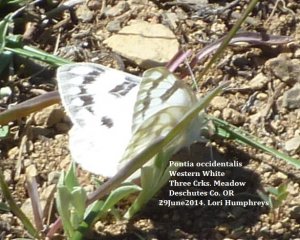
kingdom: Animalia
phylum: Arthropoda
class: Insecta
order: Lepidoptera
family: Pieridae
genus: Pontia
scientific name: Pontia occidentalis
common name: Western White
